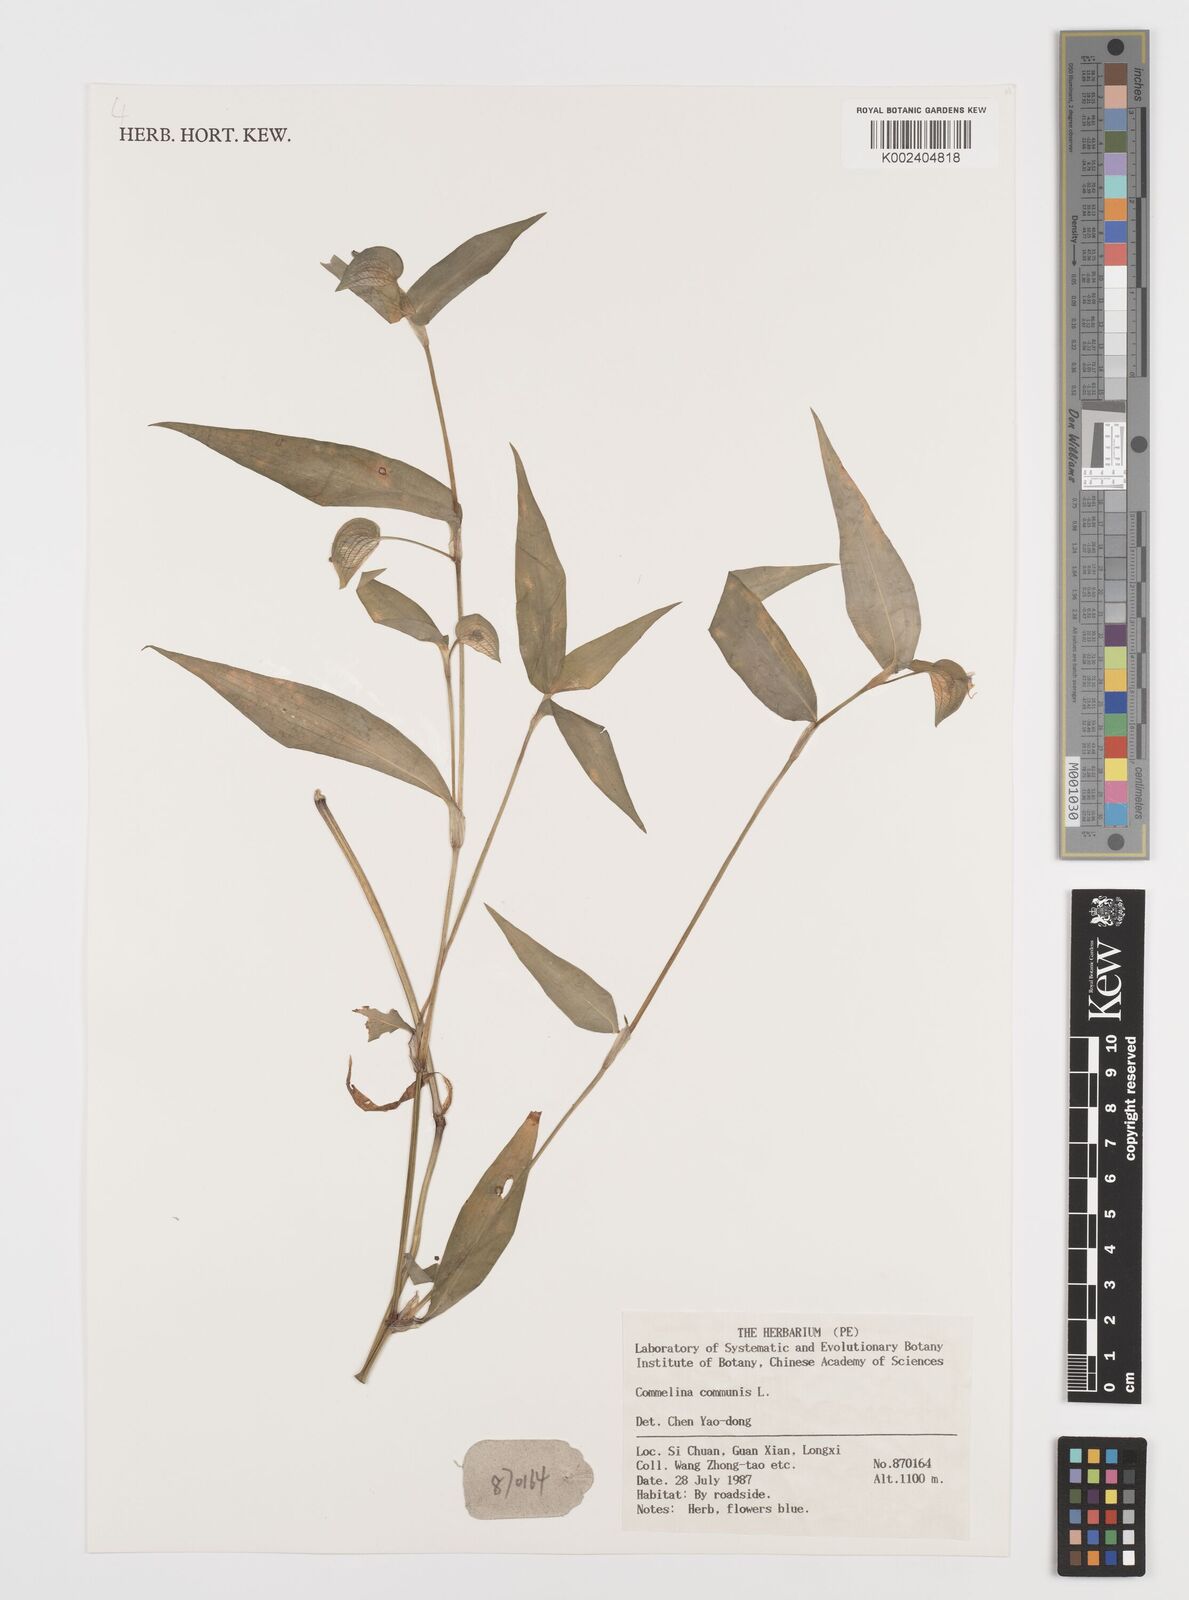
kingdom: Plantae
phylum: Tracheophyta
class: Liliopsida
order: Commelinales
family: Commelinaceae
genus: Commelina
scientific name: Commelina communis
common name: Asiatic dayflower
